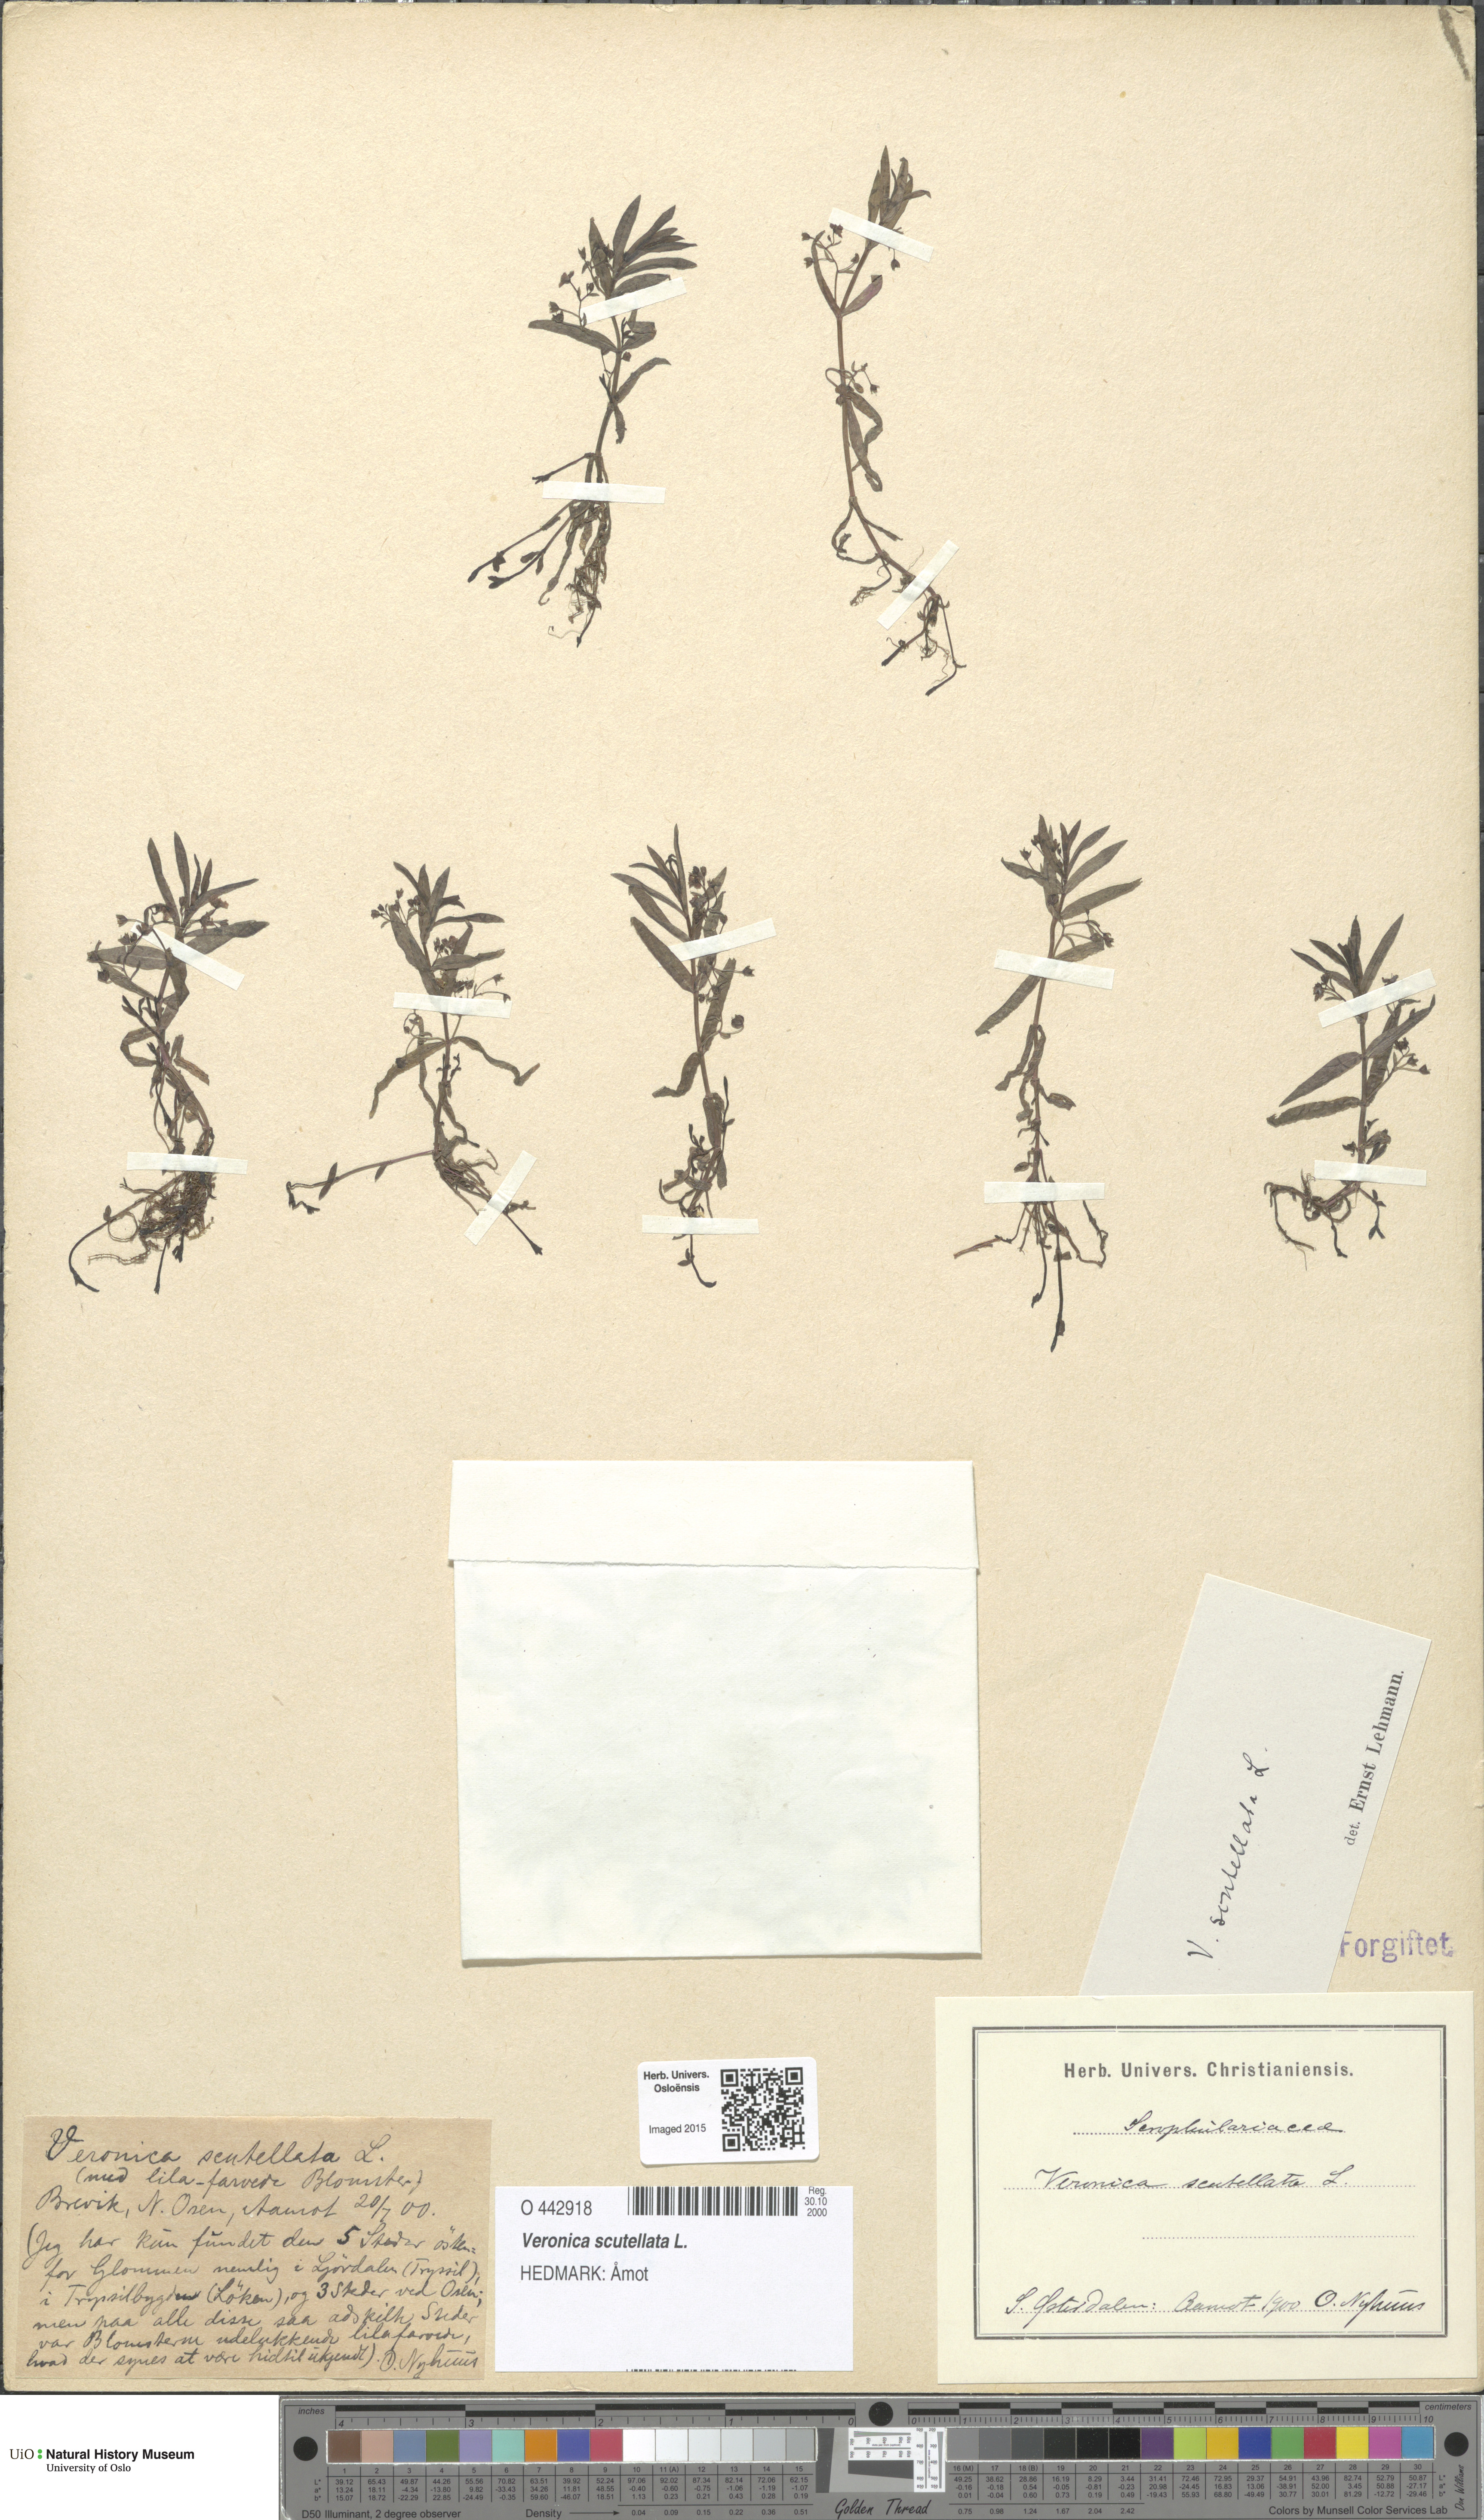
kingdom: Plantae
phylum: Tracheophyta
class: Magnoliopsida
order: Lamiales
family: Plantaginaceae
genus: Veronica
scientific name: Veronica scutellata
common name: Marsh speedwell
